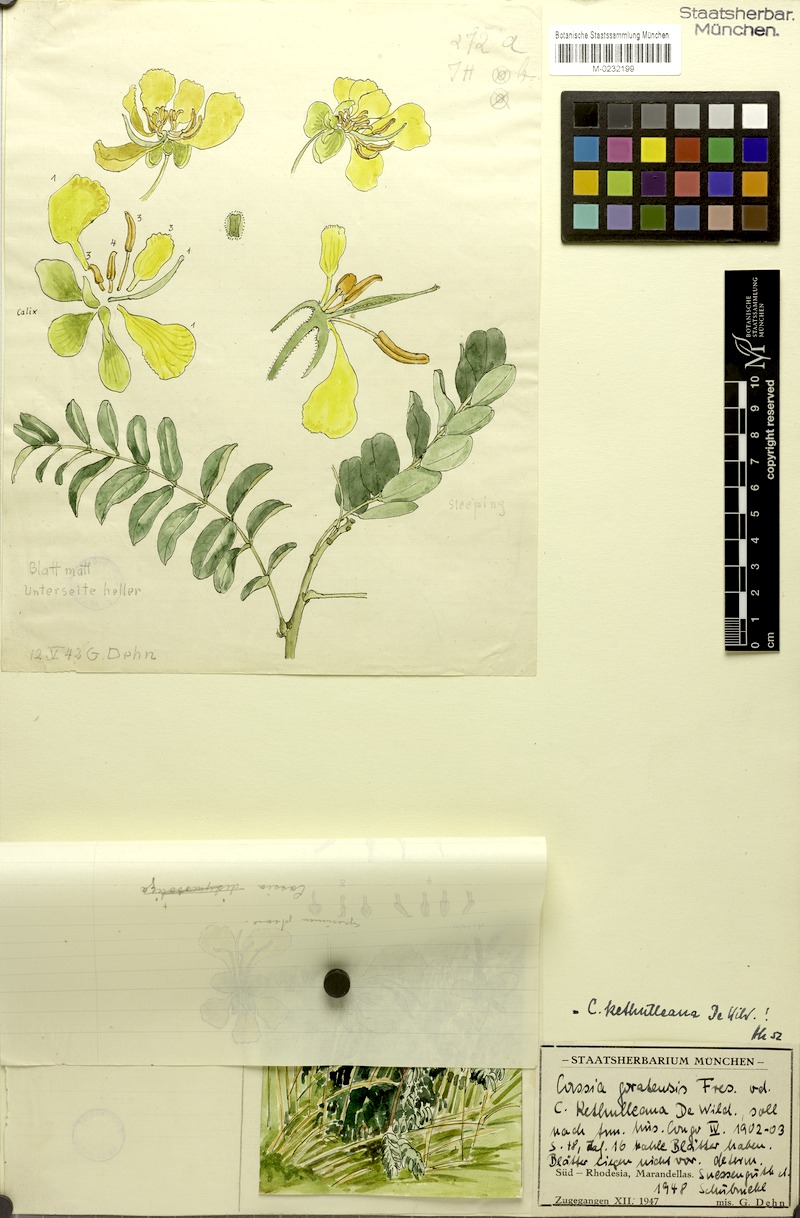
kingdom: Plantae
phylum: Tracheophyta
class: Magnoliopsida
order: Fabales
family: Fabaceae
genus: Senna
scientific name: Senna singueana
